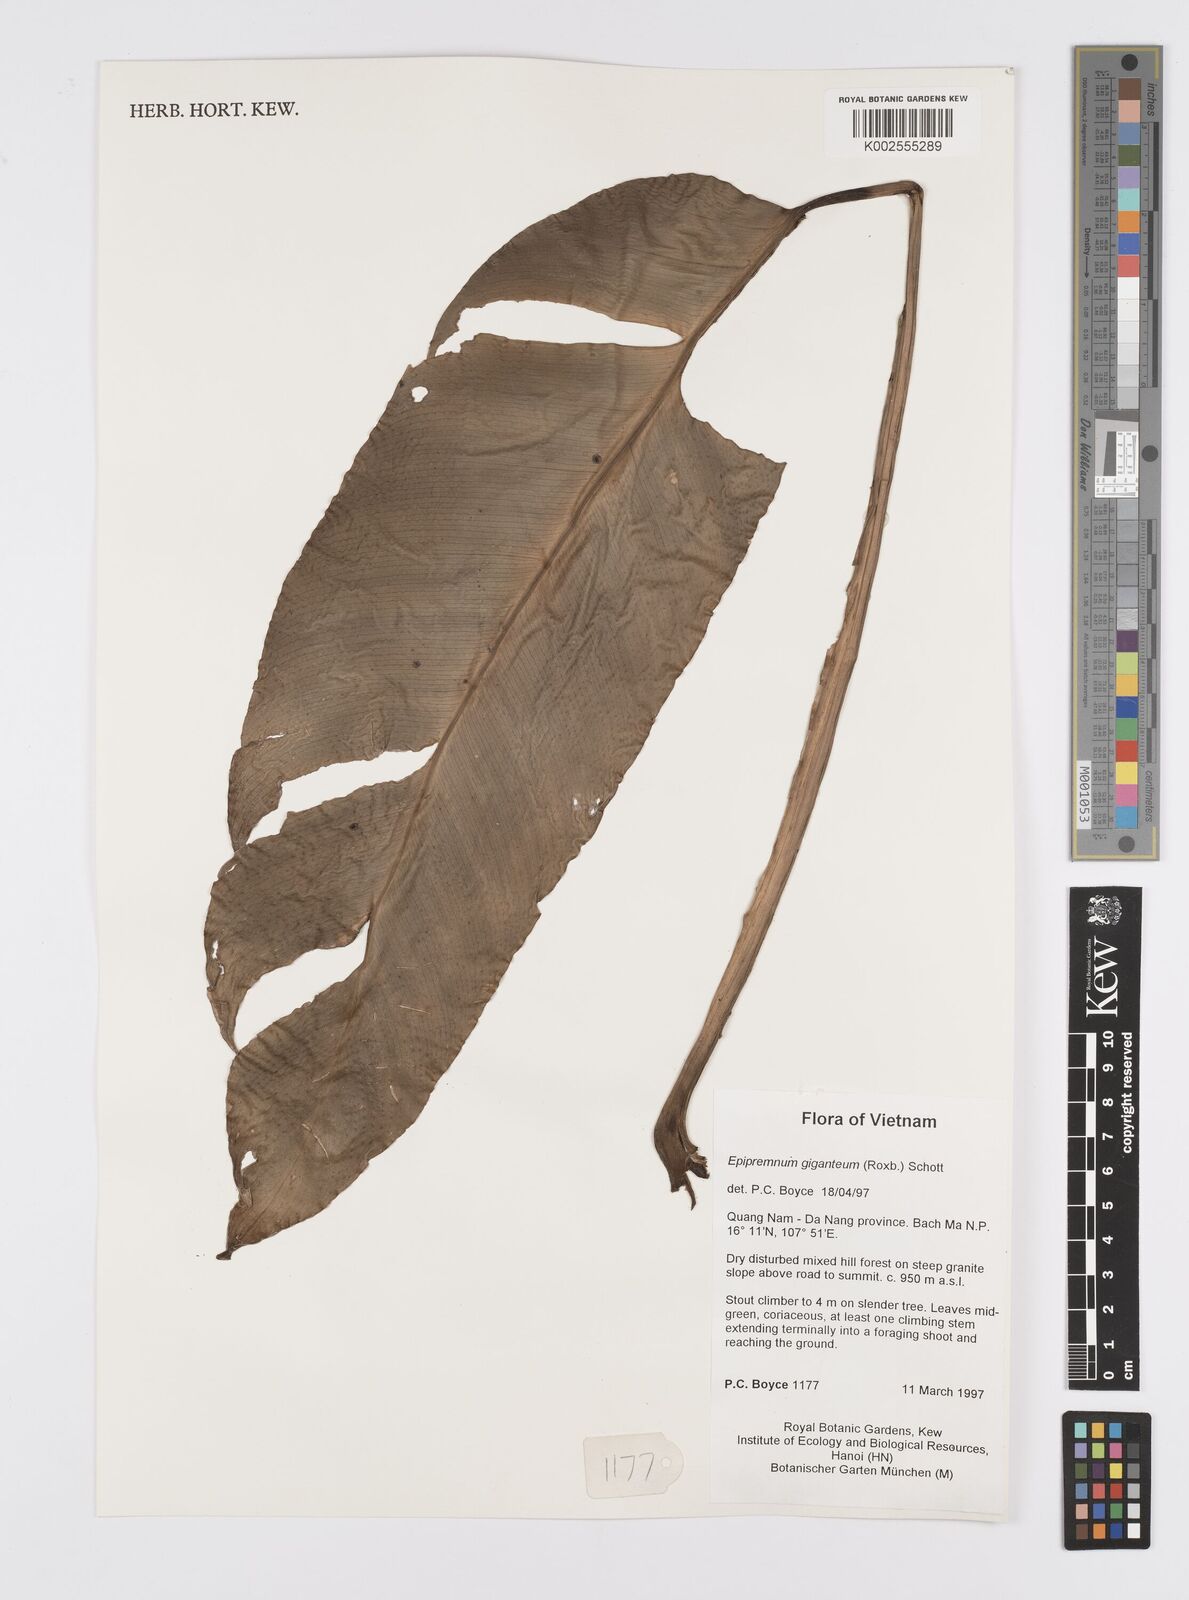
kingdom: Plantae
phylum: Tracheophyta
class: Liliopsida
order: Alismatales
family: Araceae
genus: Epipremnum
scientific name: Epipremnum giganteum
